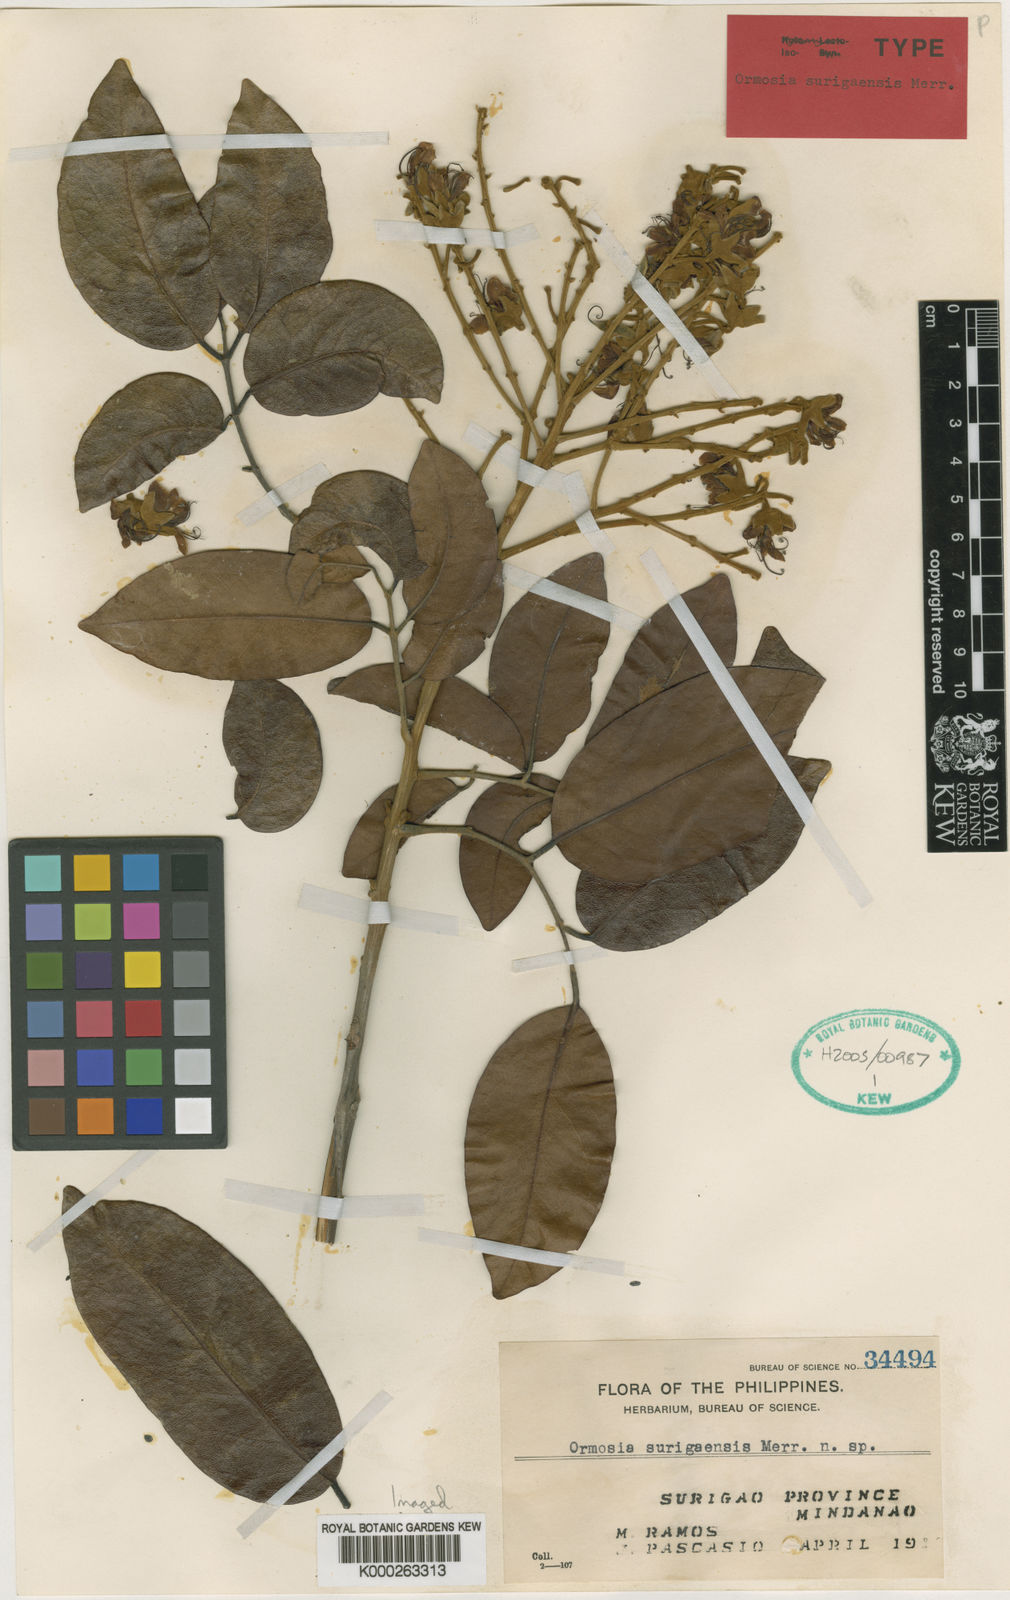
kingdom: Plantae
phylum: Tracheophyta
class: Magnoliopsida
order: Fabales
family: Fabaceae
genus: Ormosia
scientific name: Ormosia surigaensis
